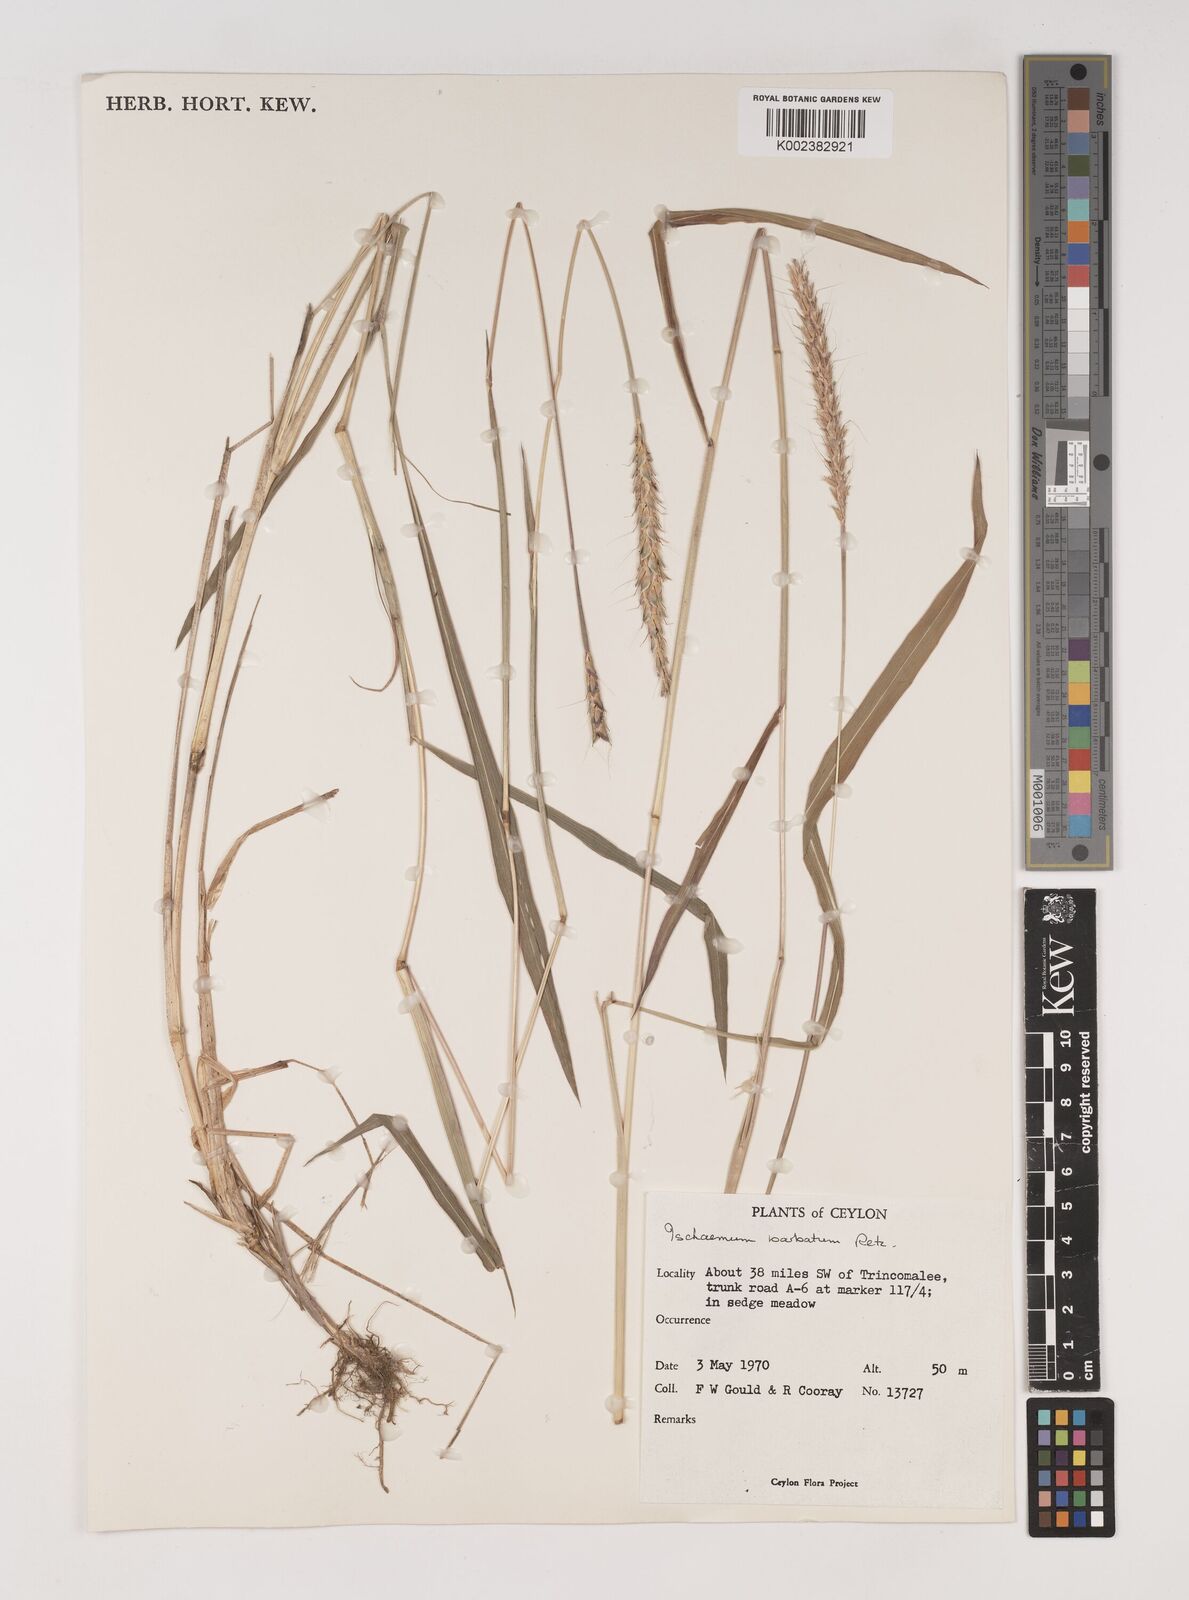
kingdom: Plantae
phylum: Tracheophyta
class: Liliopsida
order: Poales
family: Poaceae
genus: Ischaemum
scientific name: Ischaemum
